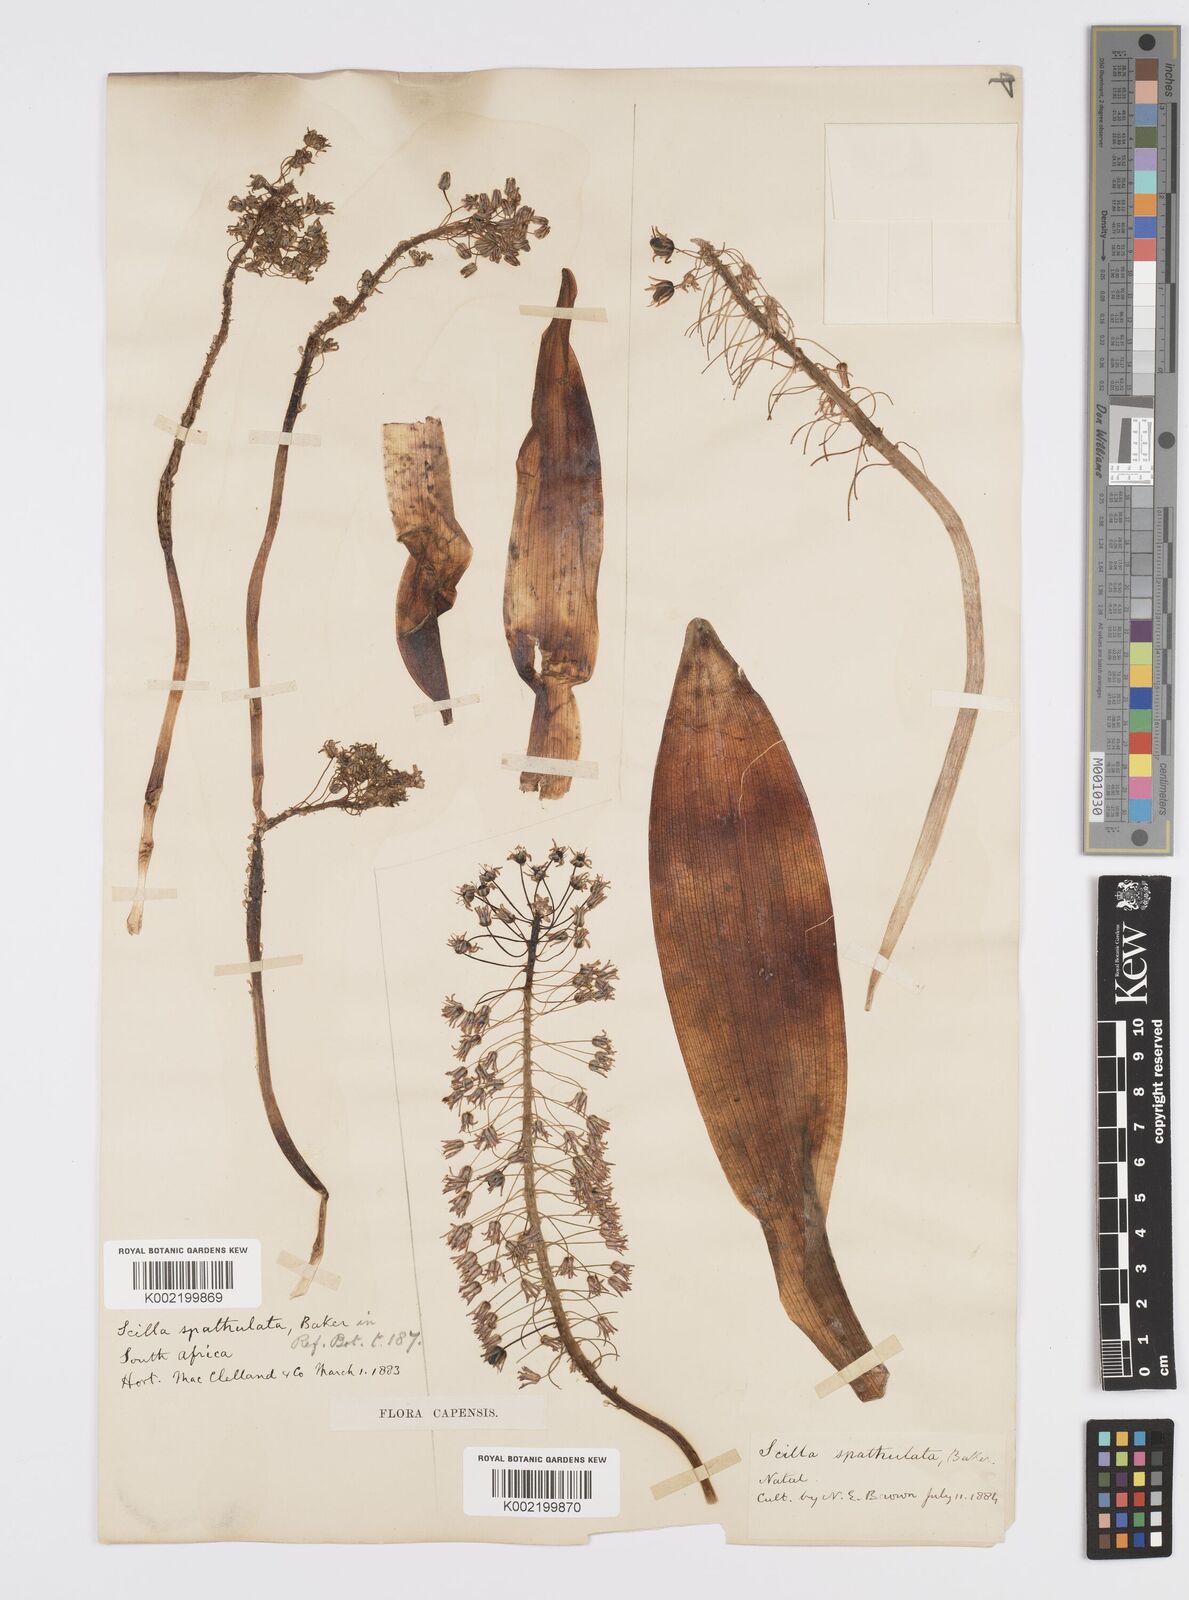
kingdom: Plantae
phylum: Tracheophyta
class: Liliopsida
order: Asparagales
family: Asparagaceae
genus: Ledebouria
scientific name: Ledebouria floribunda
